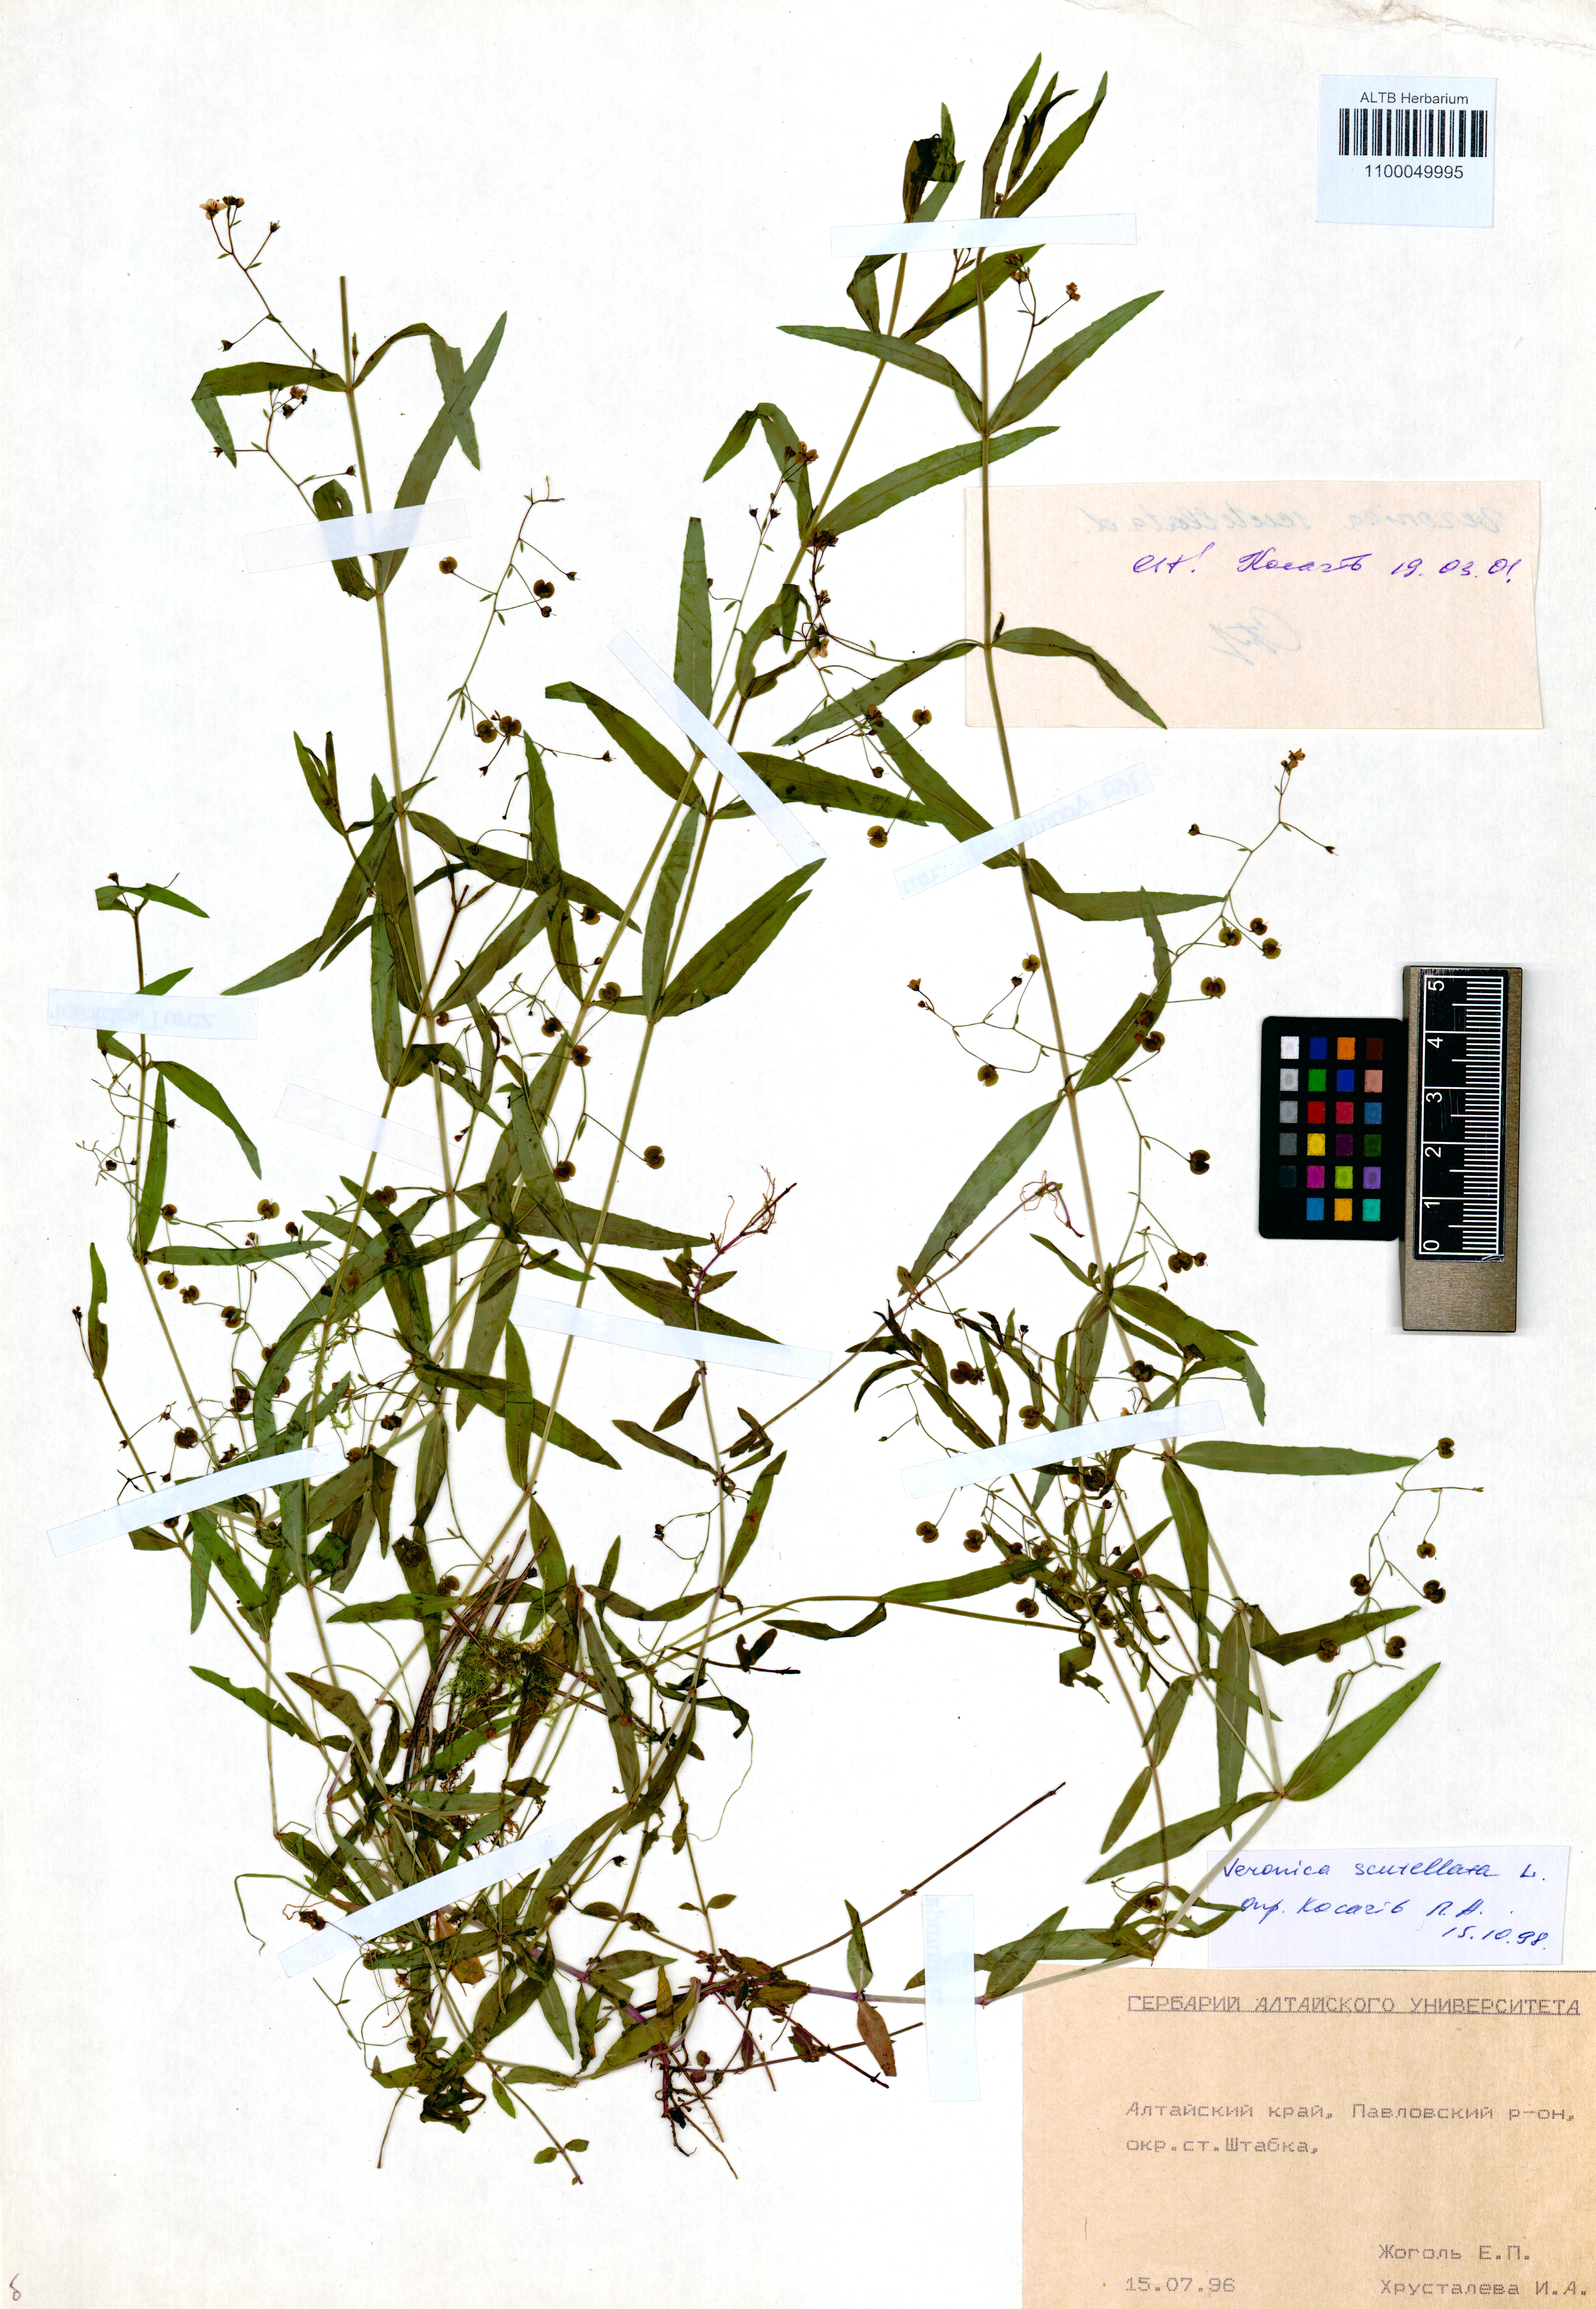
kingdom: Plantae
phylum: Tracheophyta
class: Magnoliopsida
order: Lamiales
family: Plantaginaceae
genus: Veronica
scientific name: Veronica scutellata
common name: Marsh speedwell
